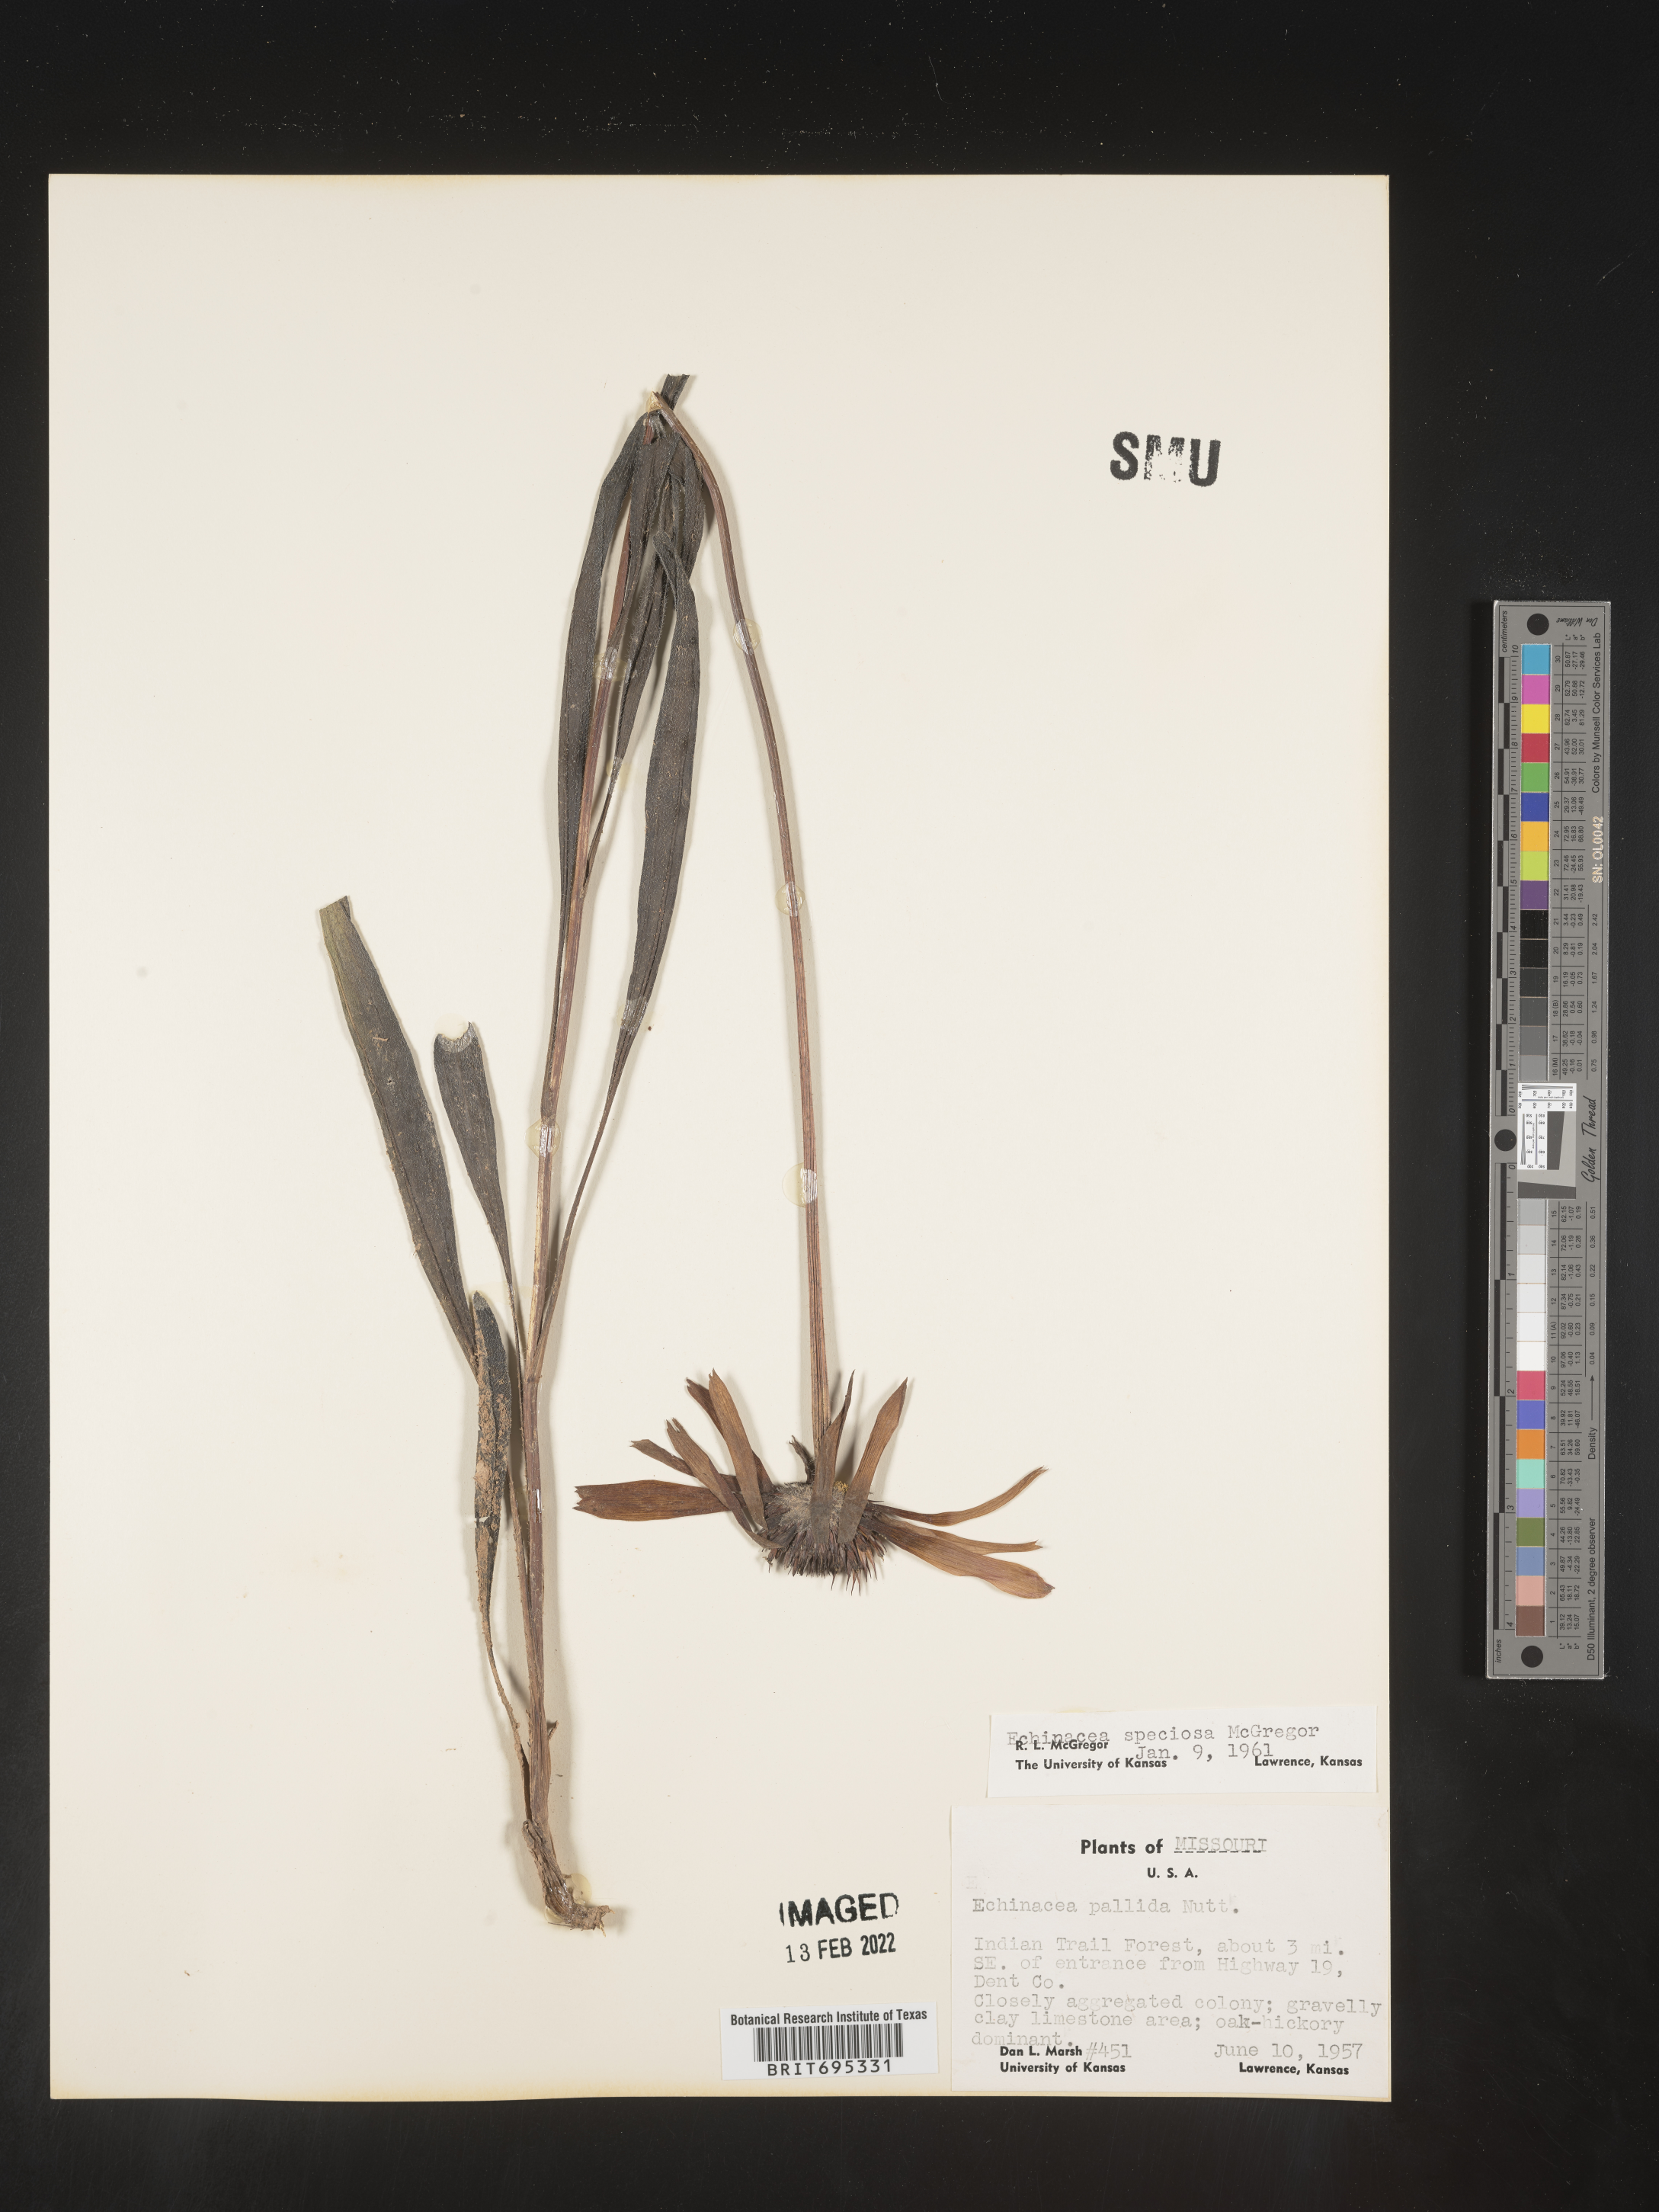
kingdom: Plantae
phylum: Tracheophyta
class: Magnoliopsida
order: Asterales
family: Asteraceae
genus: Echinacea
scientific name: Echinacea simulata
